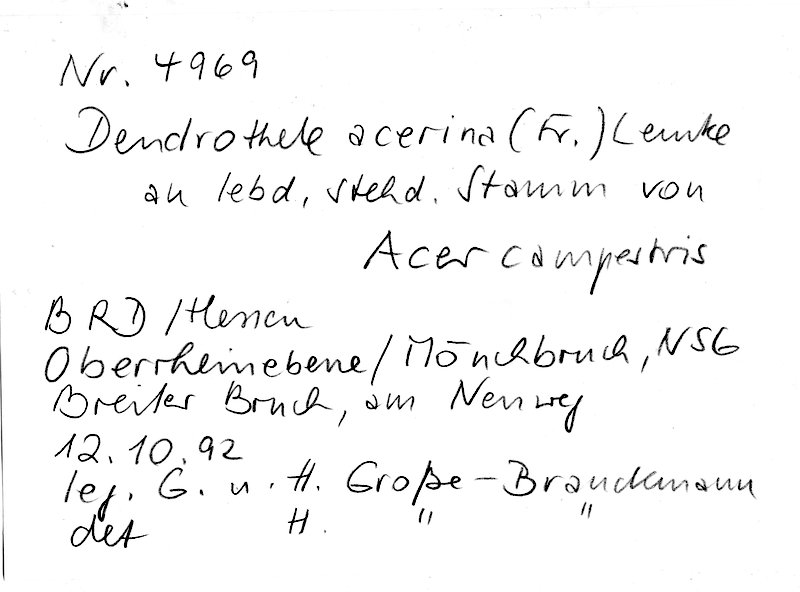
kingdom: Fungi
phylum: Basidiomycota
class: Agaricomycetes
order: Agaricales
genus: Dendrothele
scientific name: Dendrothele acerina
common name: Maple whitewash
